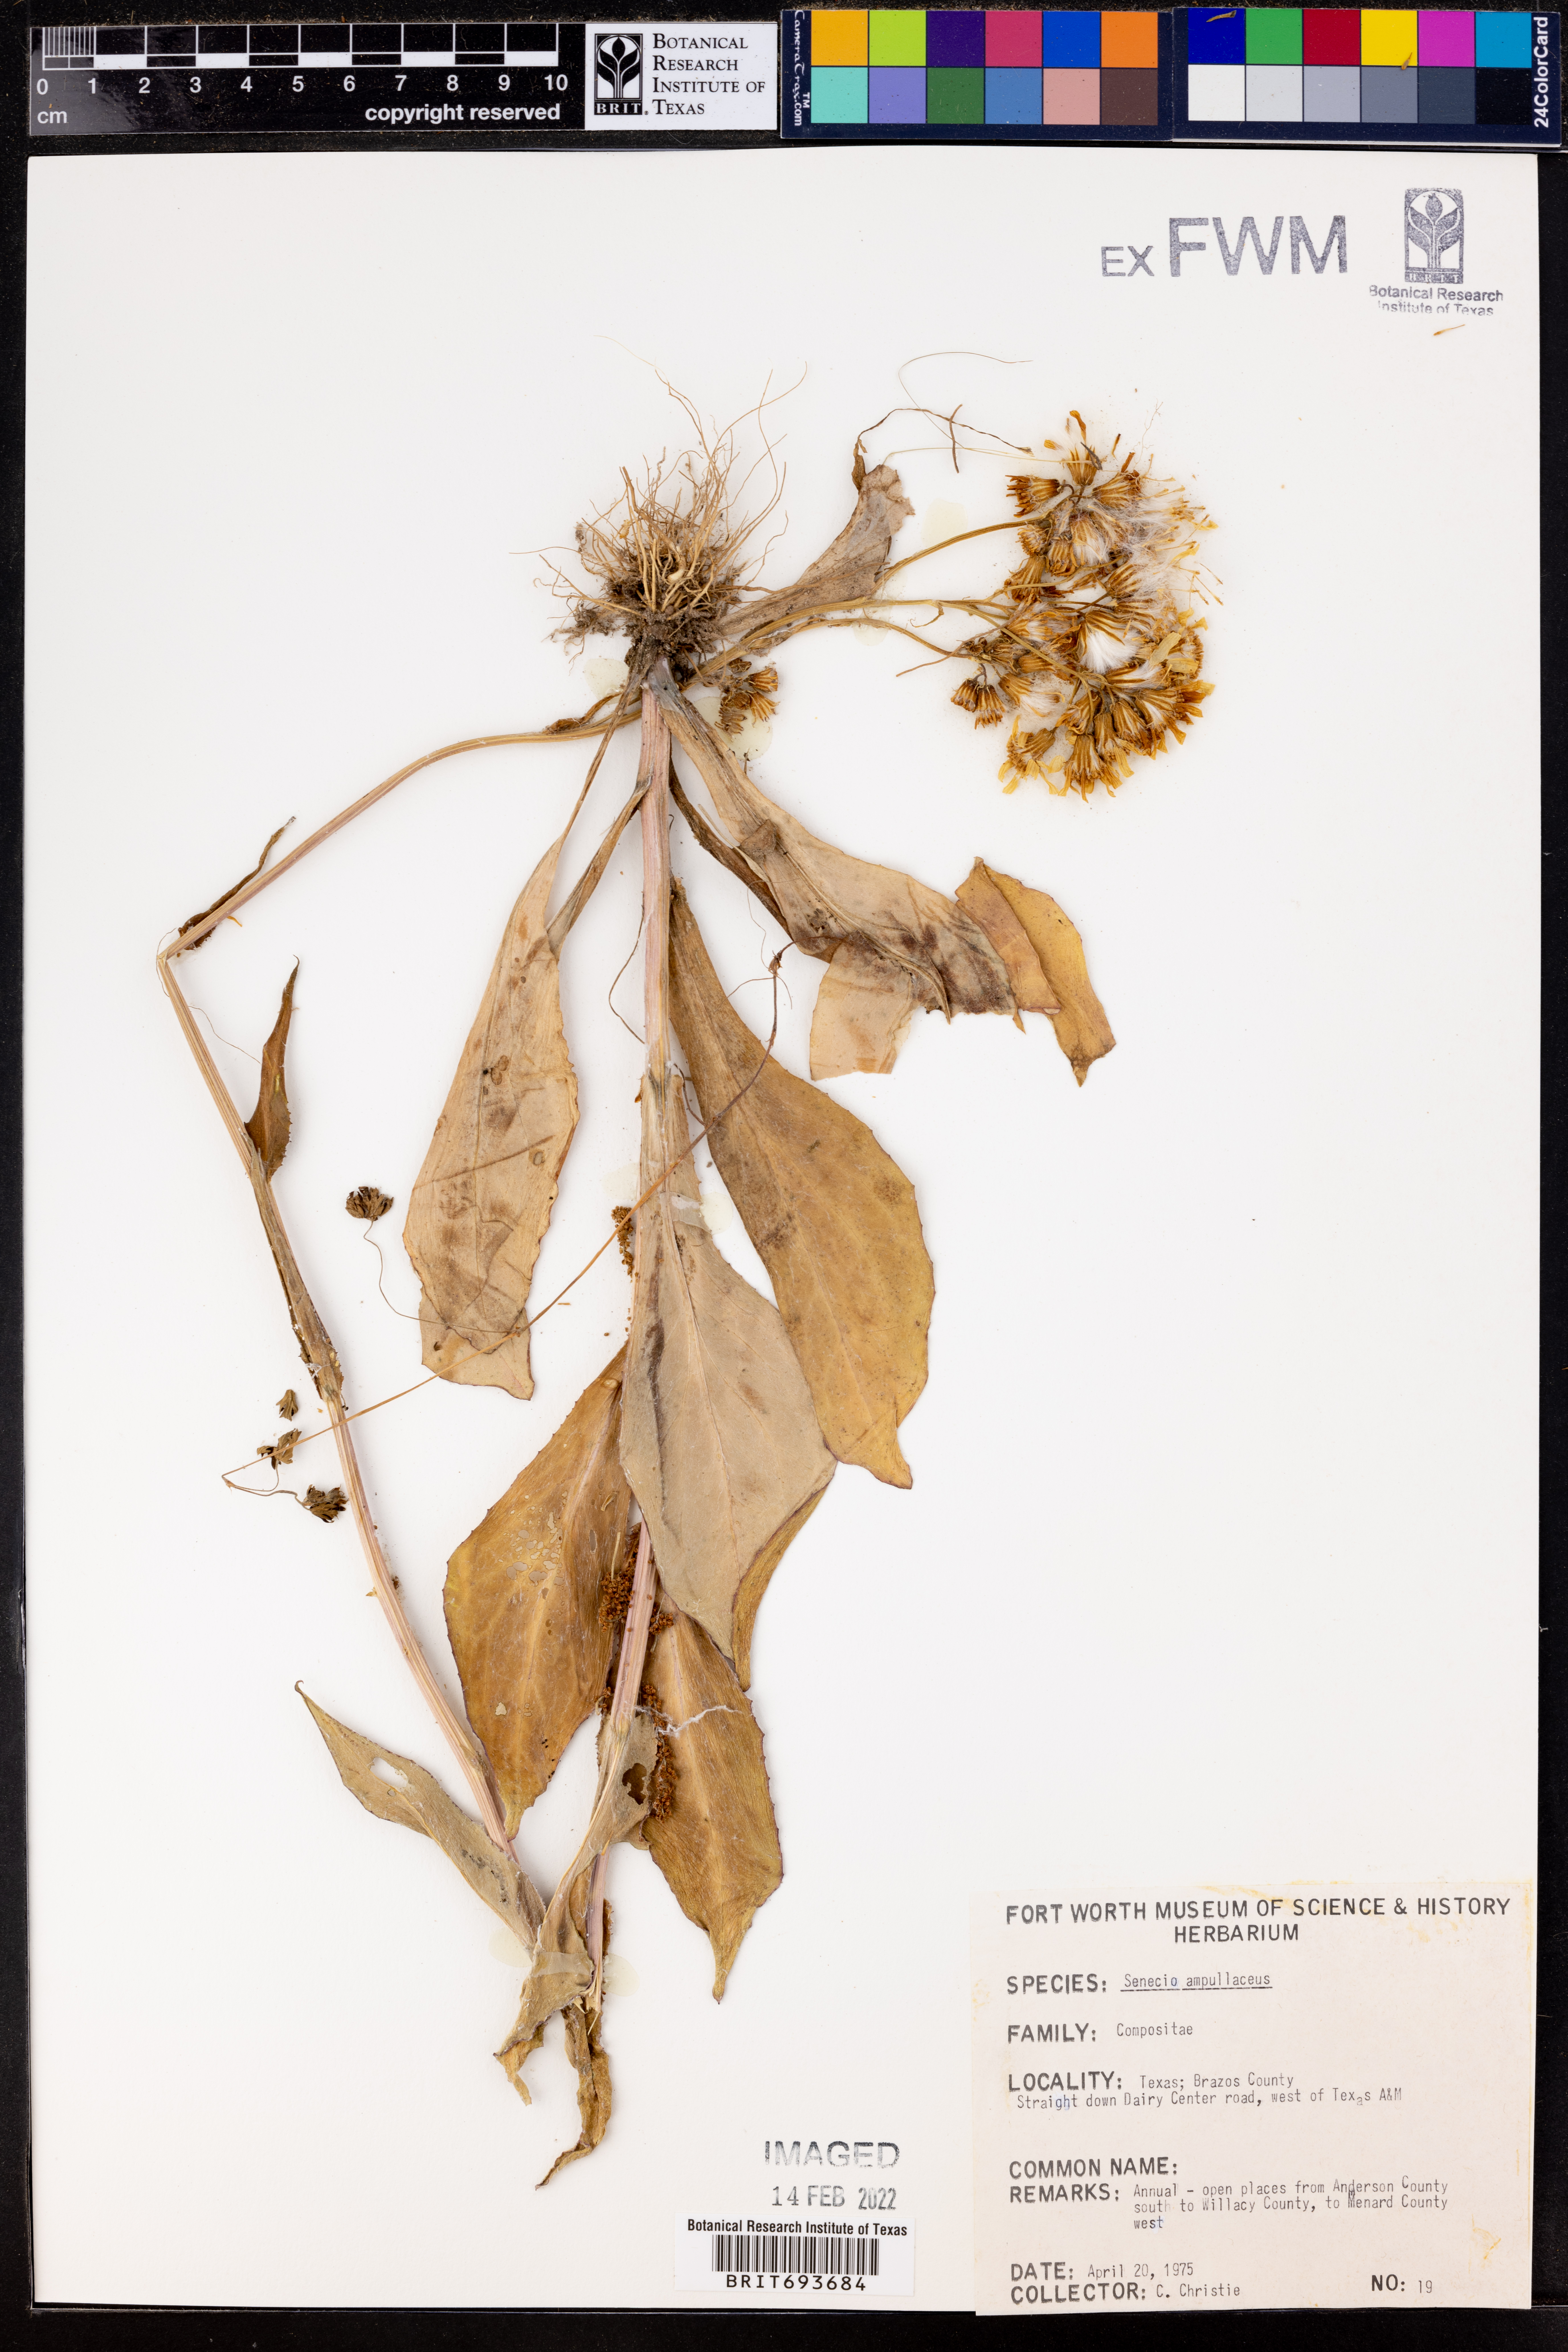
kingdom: Plantae
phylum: Tracheophyta
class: Magnoliopsida
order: Asterales
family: Asteraceae
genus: Senecio
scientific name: Senecio ampullaceus
